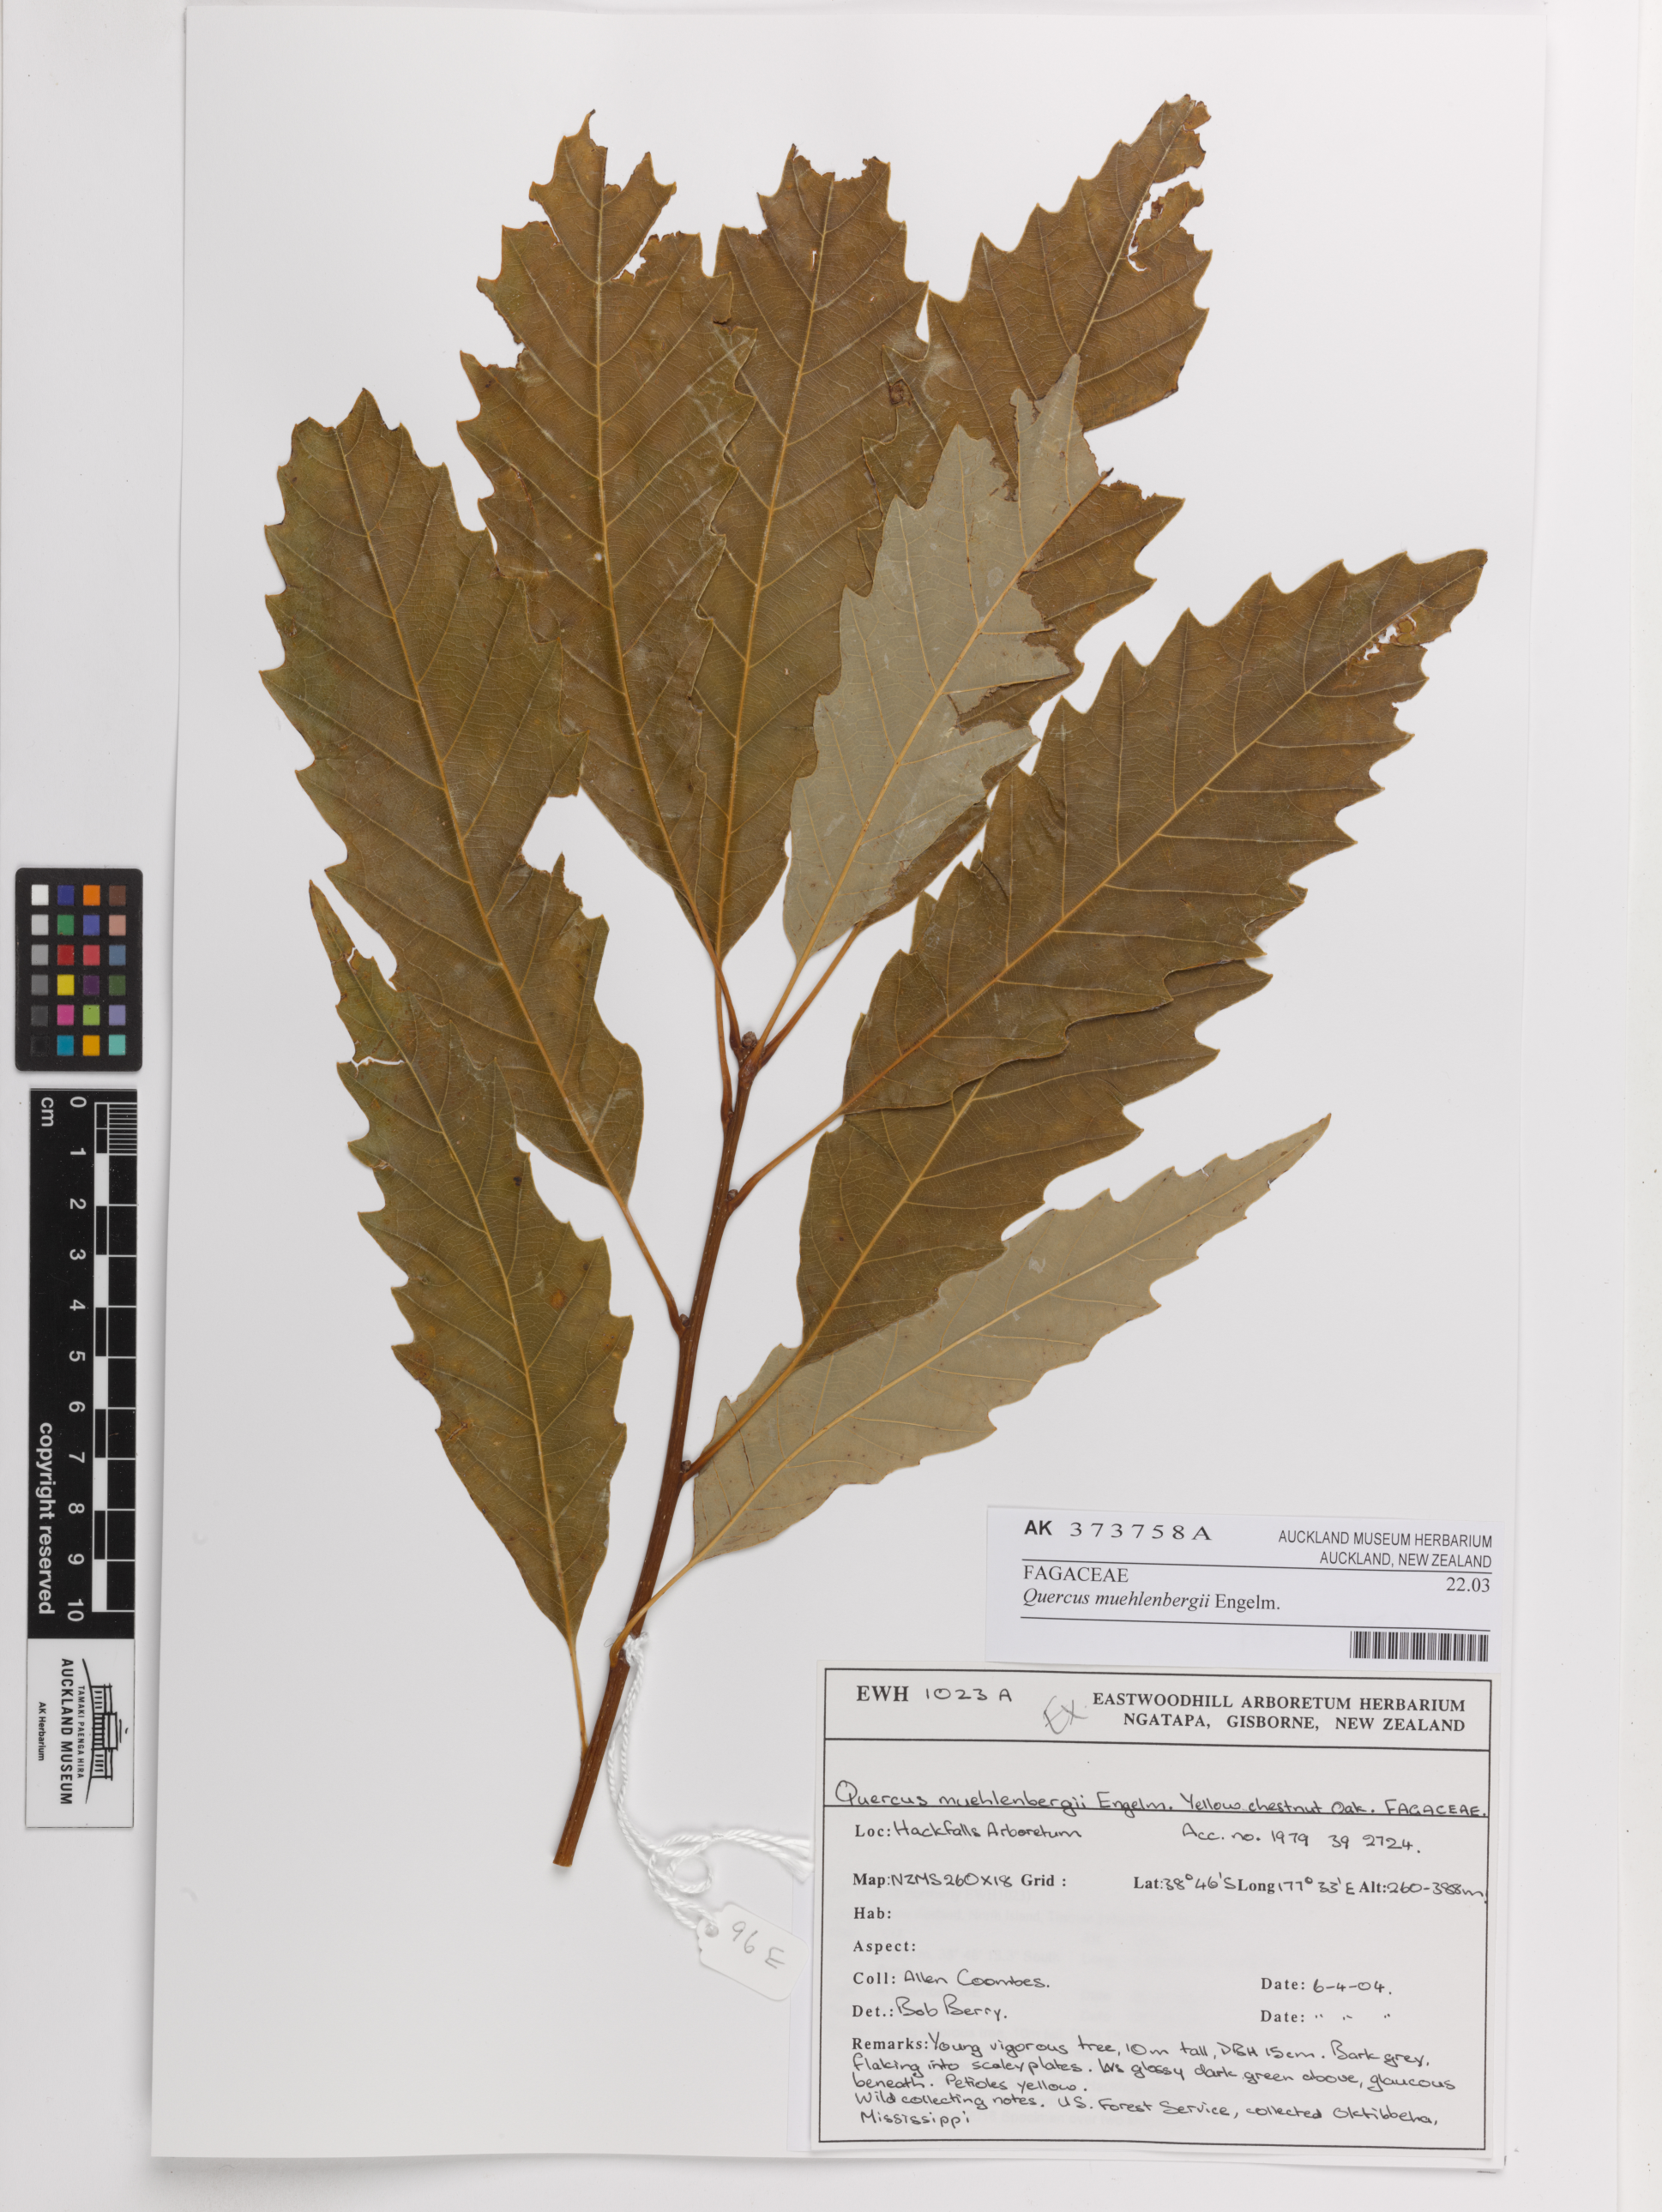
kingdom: Plantae
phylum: Tracheophyta
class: Magnoliopsida
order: Fagales
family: Fagaceae
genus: Quercus
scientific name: Quercus muehlenbergii
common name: Chinkapin oak
